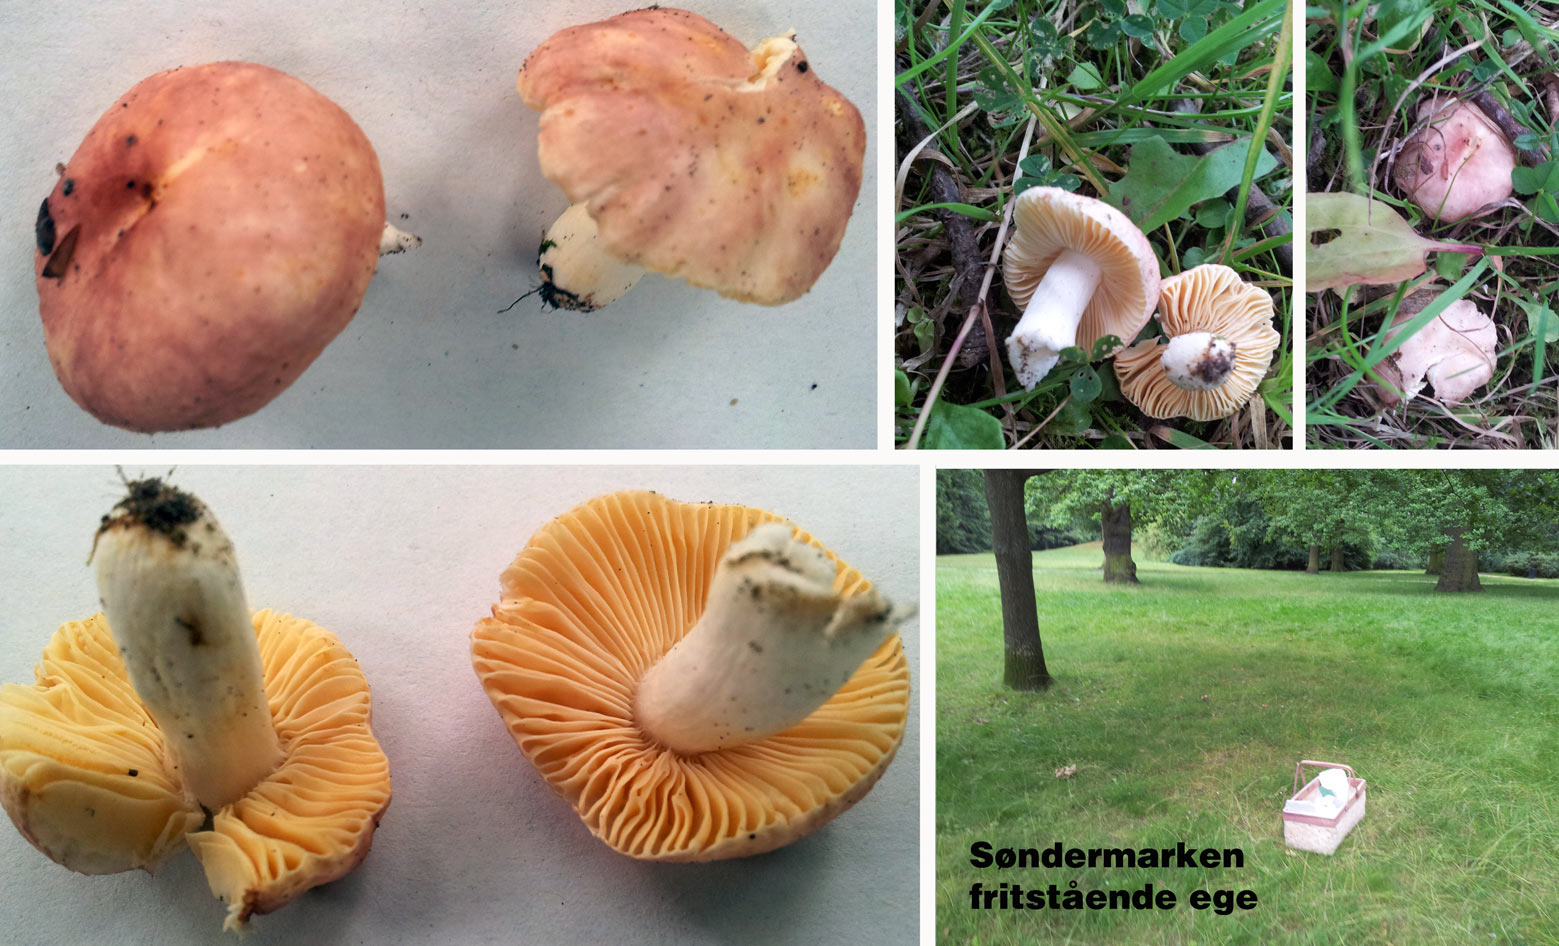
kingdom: Fungi
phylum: Basidiomycota
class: Agaricomycetes
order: Russulales
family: Russulaceae
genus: Russula
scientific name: Russula odorata
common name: duft-skørhat
